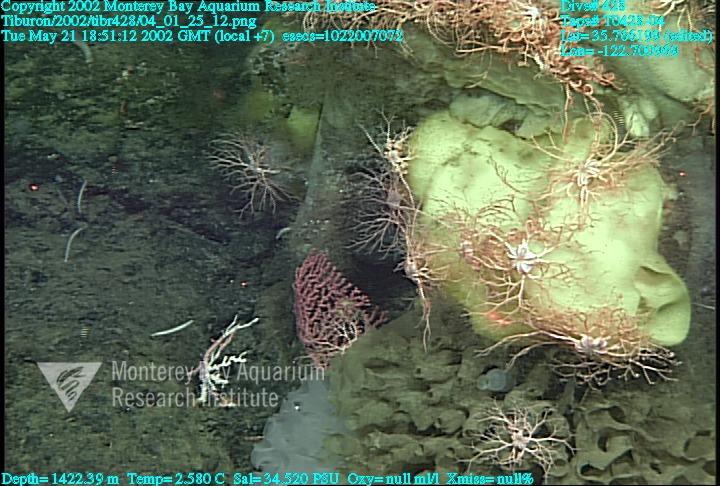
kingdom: Animalia
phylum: Porifera
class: Hexactinellida
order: Lyssacinosida
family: Rossellidae
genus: Staurocalyptus
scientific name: Staurocalyptus
